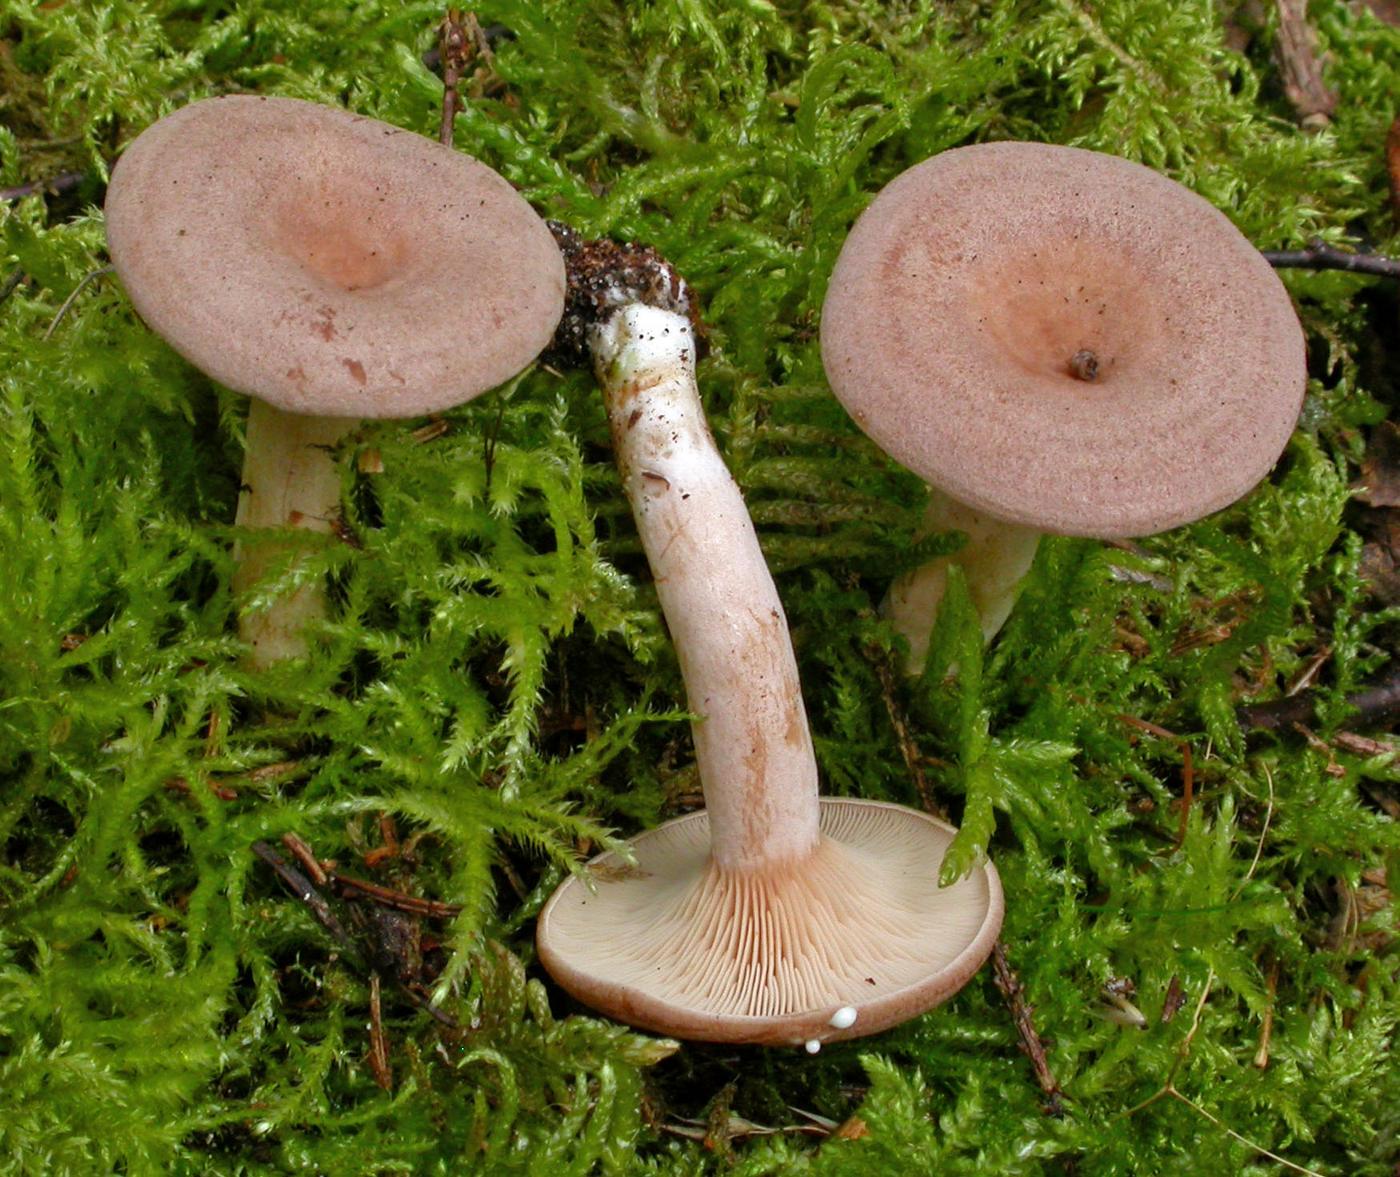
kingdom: Fungi
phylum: Basidiomycota
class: Agaricomycetes
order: Russulales
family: Russulaceae
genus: Lactarius
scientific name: Lactarius glyciosmus
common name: kokos-mælkehat
